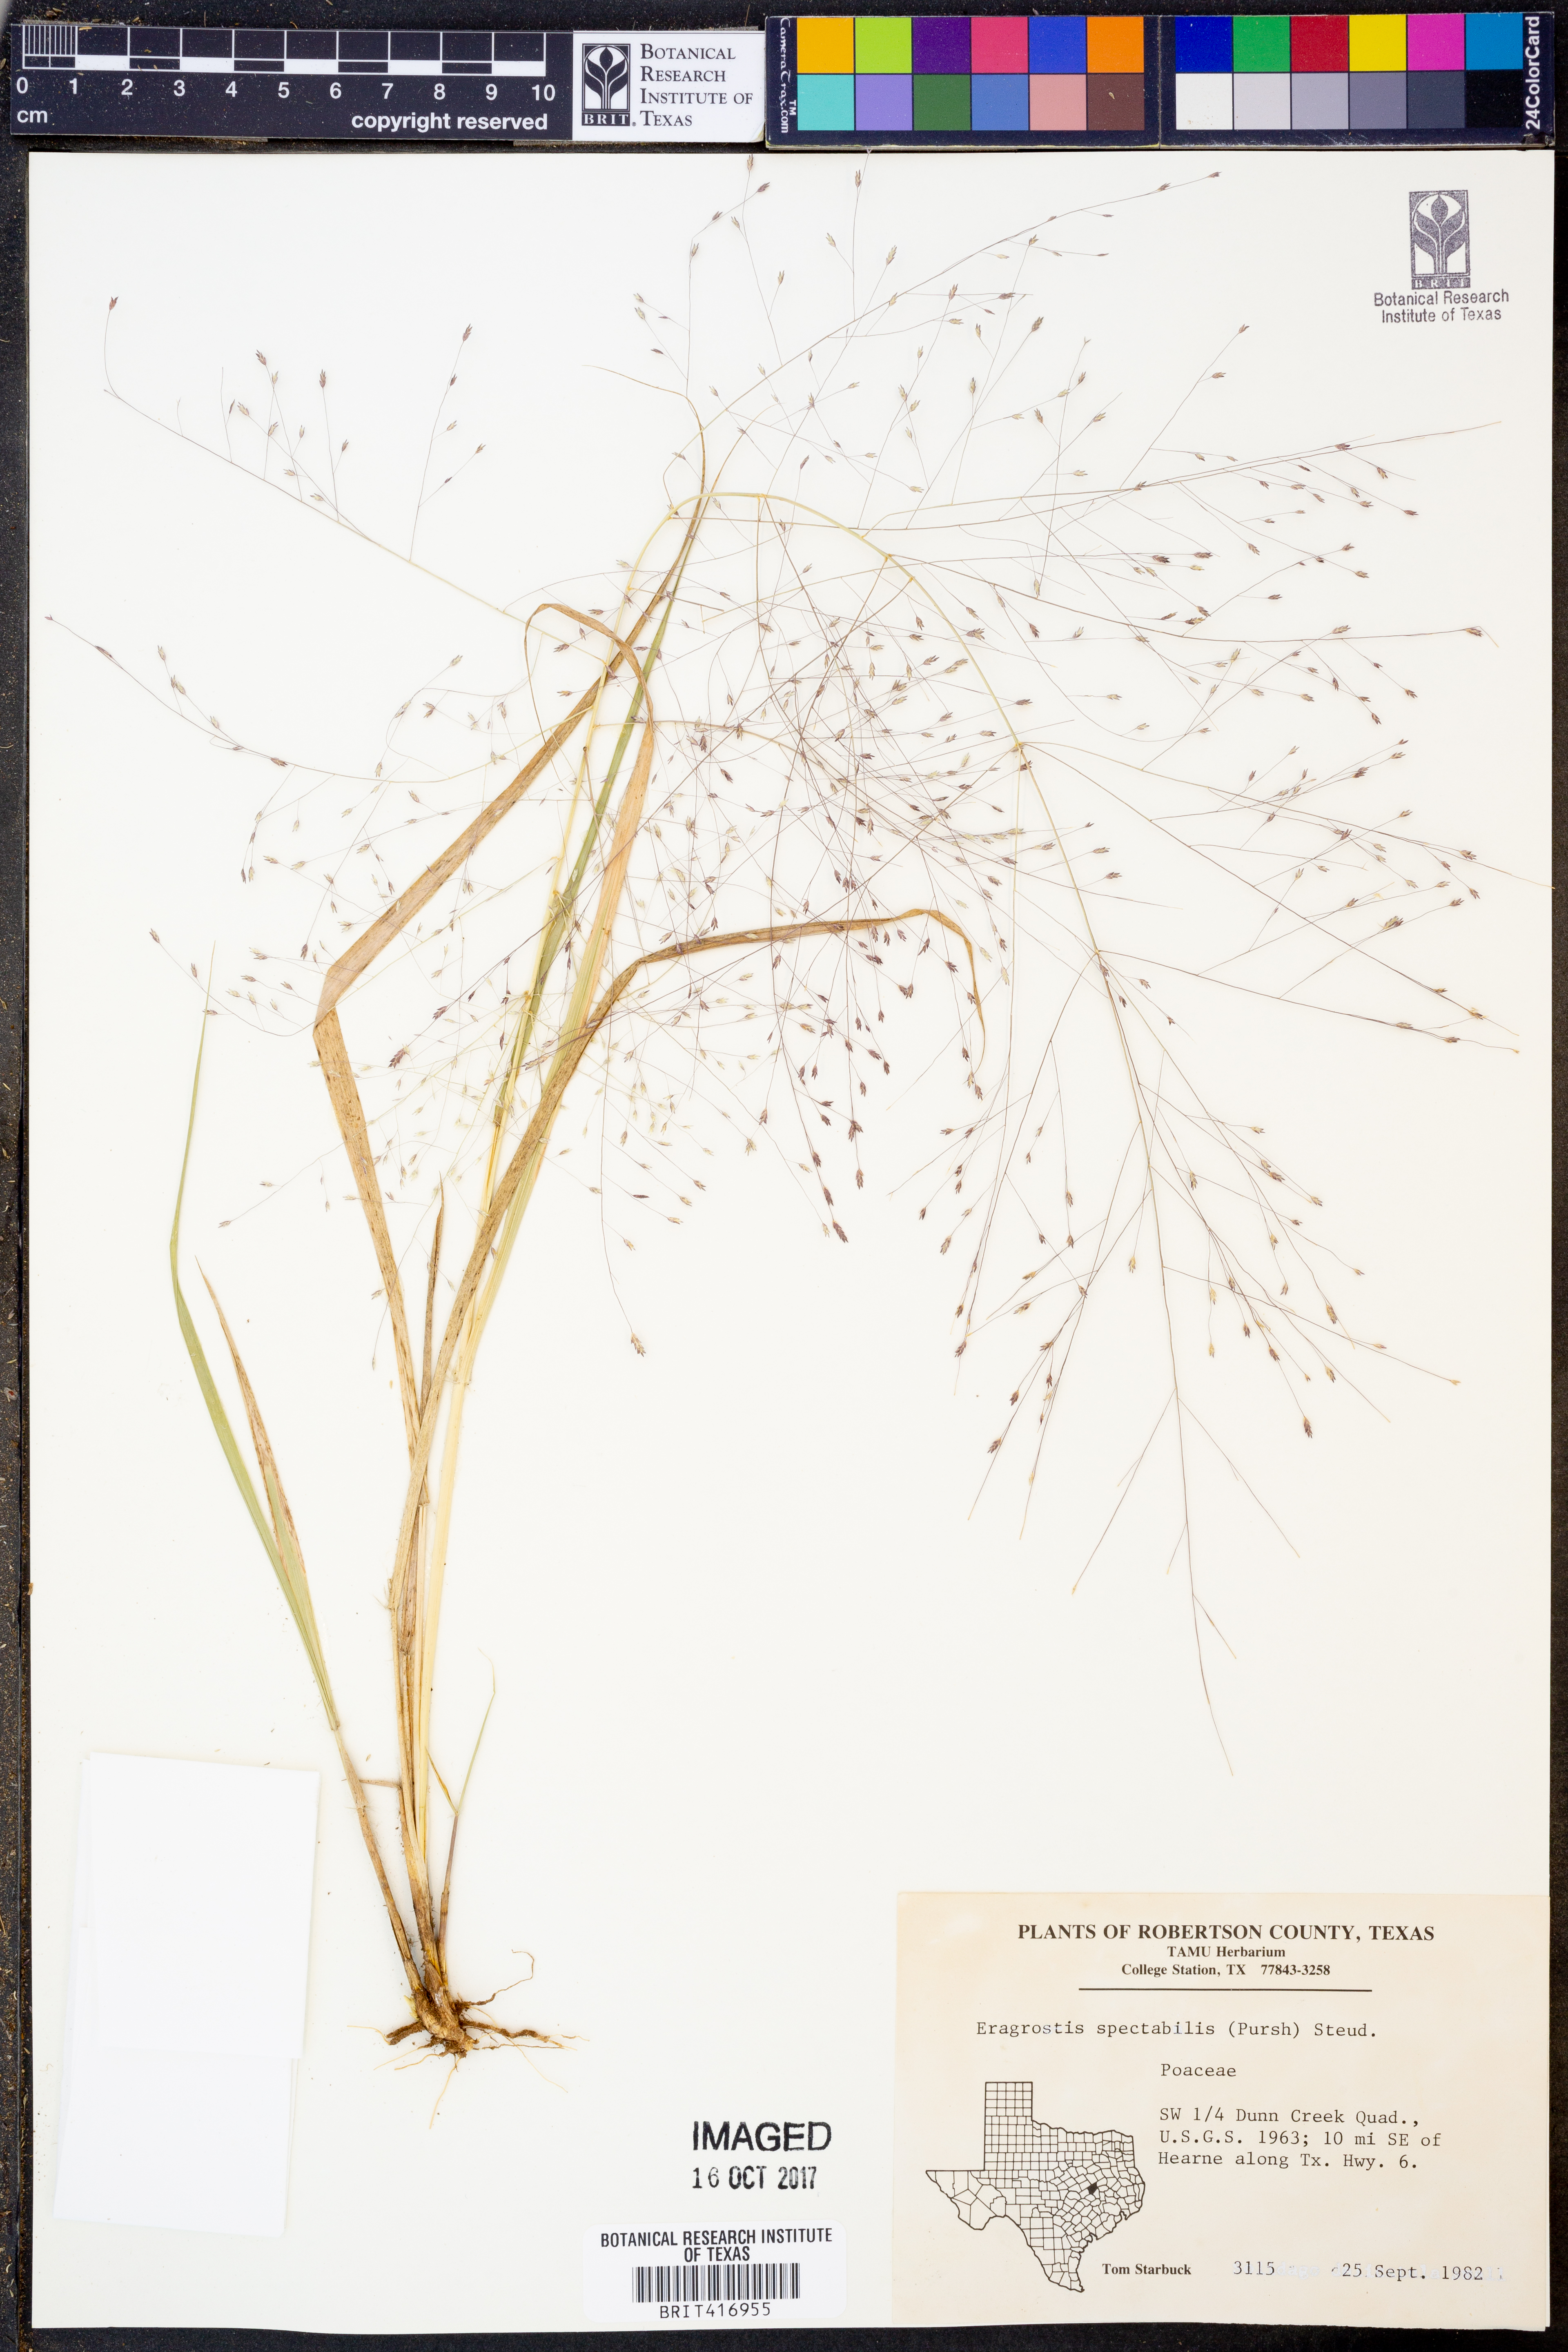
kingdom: Plantae
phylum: Tracheophyta
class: Liliopsida
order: Poales
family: Poaceae
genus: Eragrostis
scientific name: Eragrostis spectabilis
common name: Petticoat-climber
